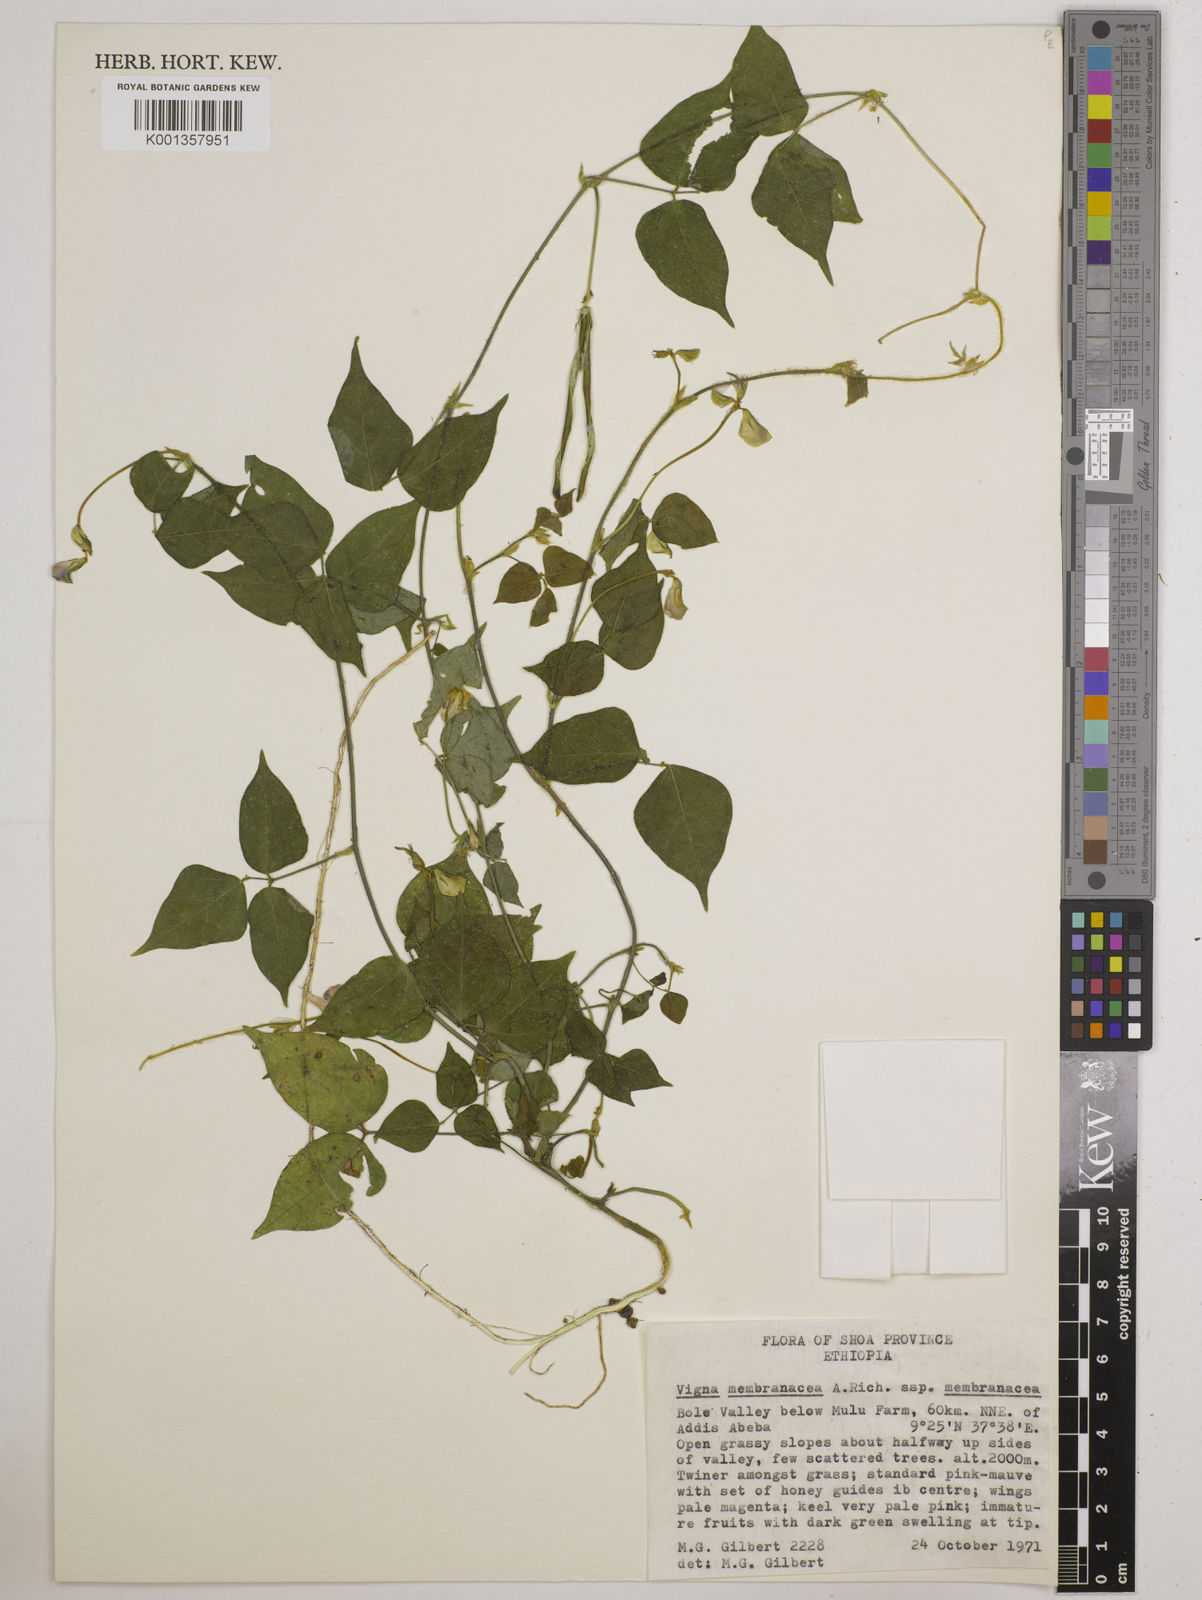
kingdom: Plantae
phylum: Tracheophyta
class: Magnoliopsida
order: Fabales
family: Fabaceae
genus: Vigna
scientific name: Vigna membranacea
